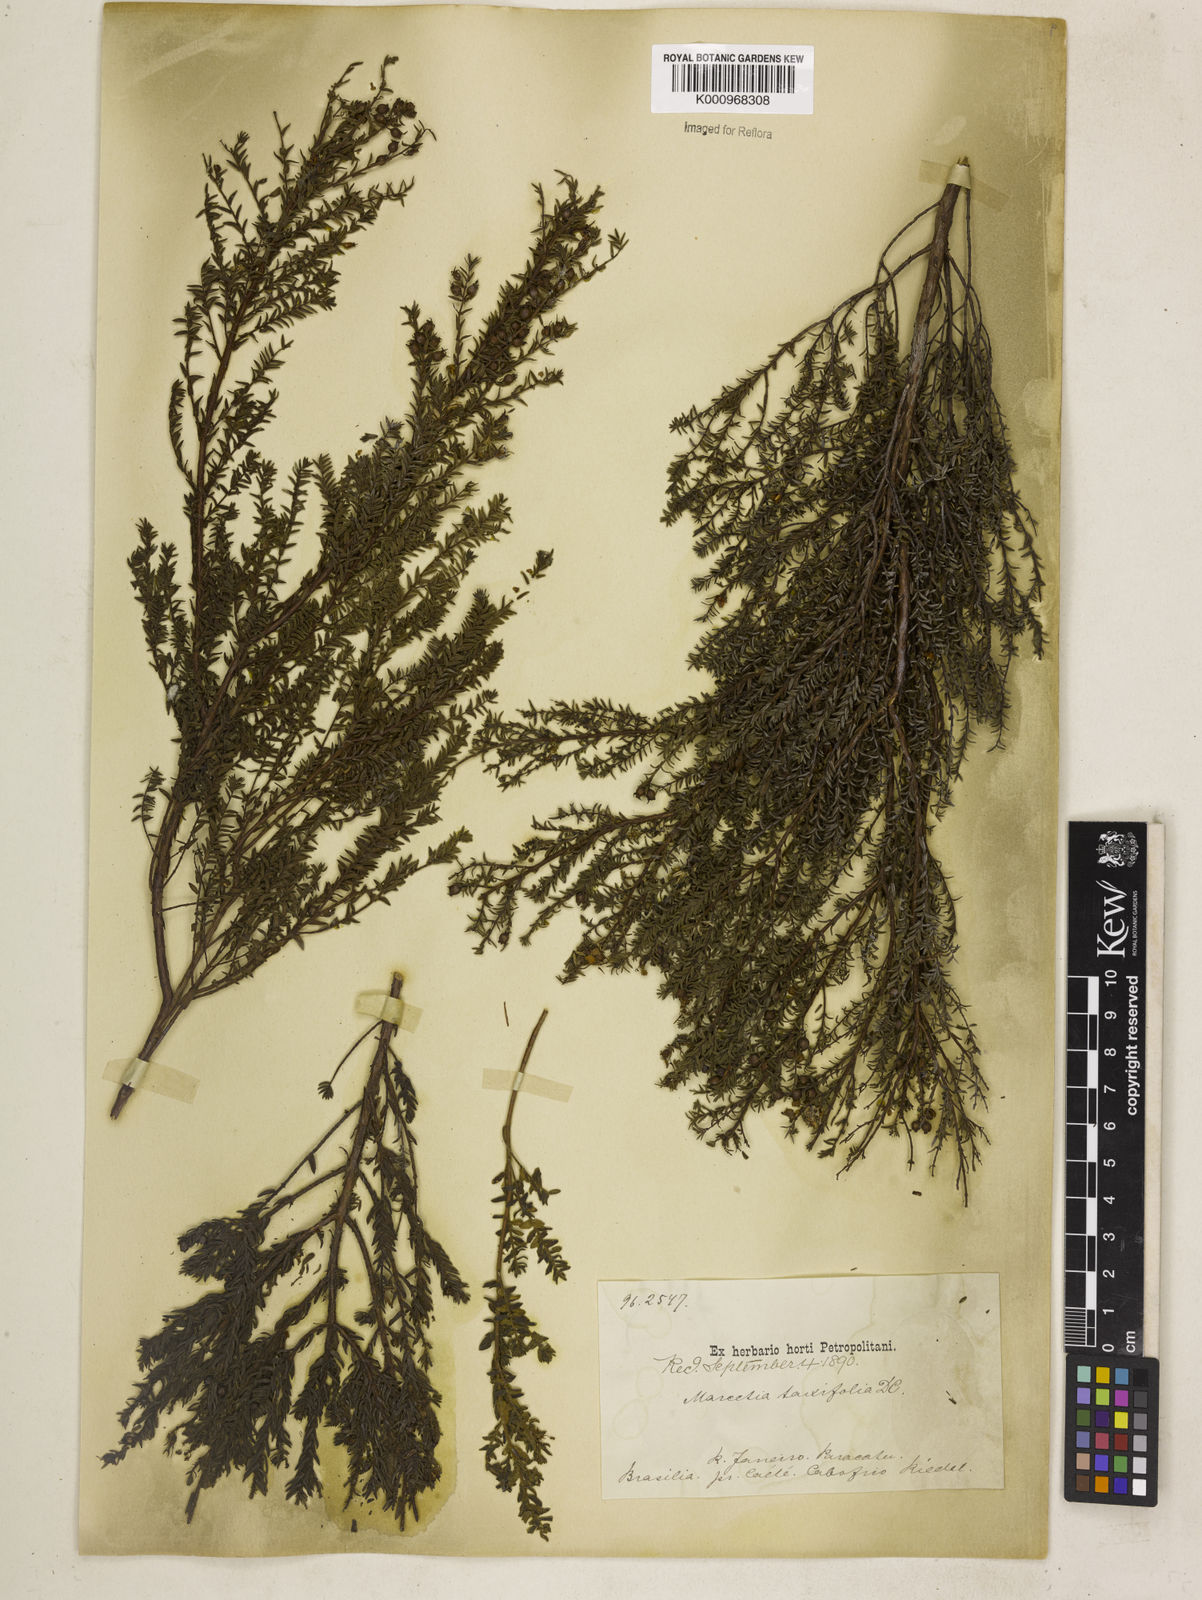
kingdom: Plantae
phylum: Tracheophyta
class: Magnoliopsida
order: Myrtales
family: Melastomataceae
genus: Marcetia
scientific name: Marcetia taxifolia
